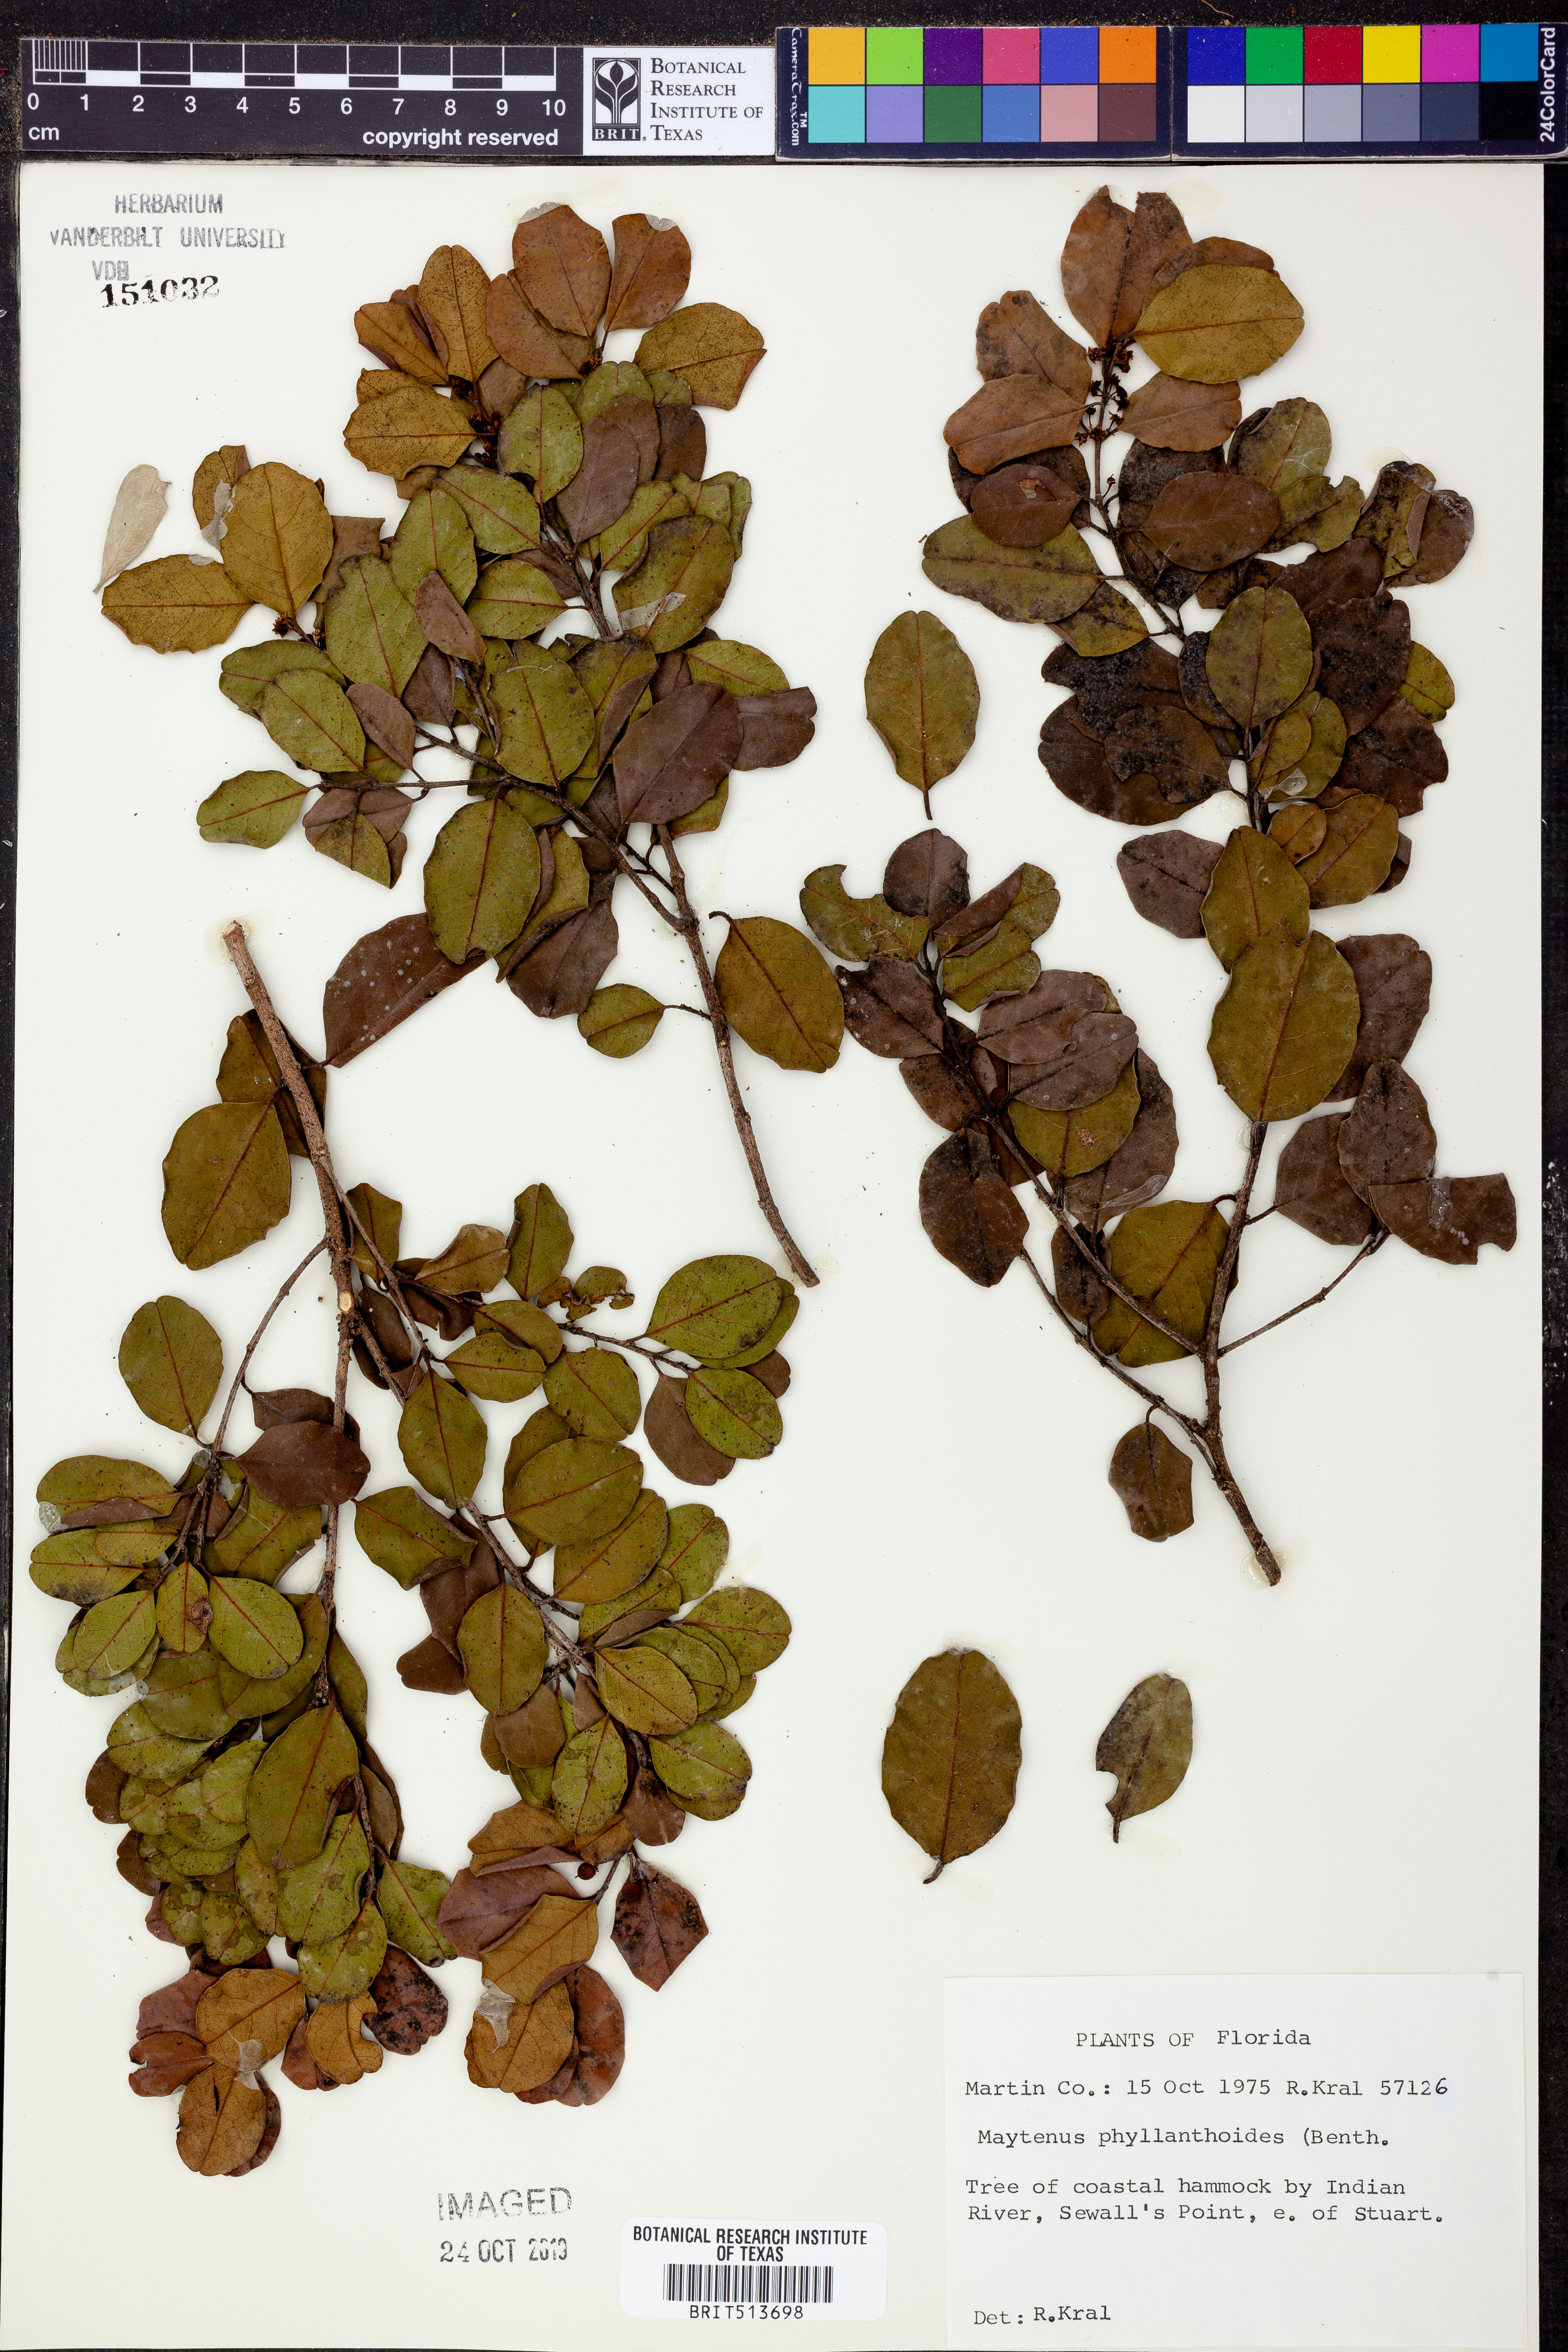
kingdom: Plantae
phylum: Tracheophyta
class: Magnoliopsida
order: Celastrales
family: Celastraceae
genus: Tricerma
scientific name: Tricerma phyllanthoides
